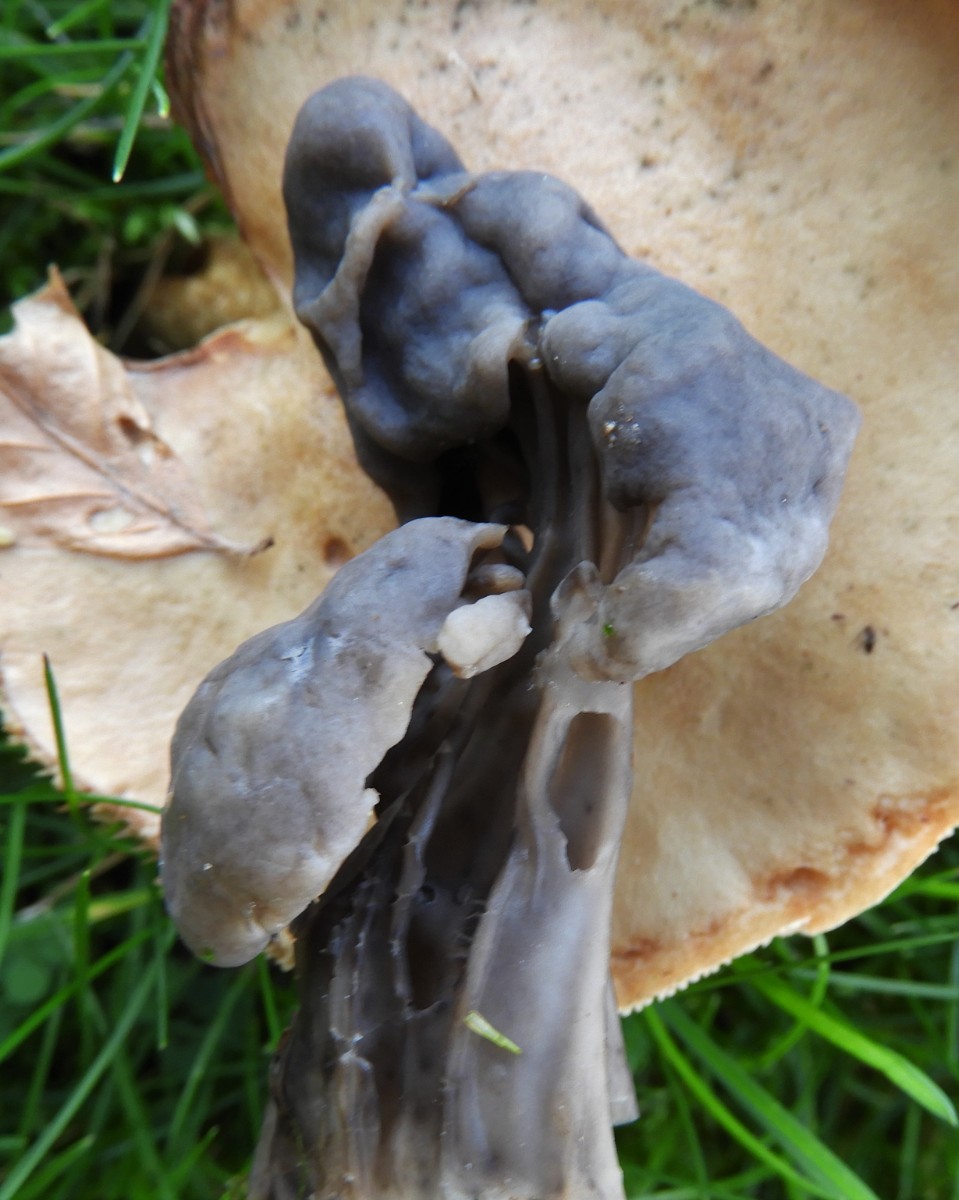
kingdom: Fungi
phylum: Ascomycota
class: Pezizomycetes
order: Pezizales
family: Helvellaceae
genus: Helvella
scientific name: Helvella lacunosa
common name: grubet foldhat
